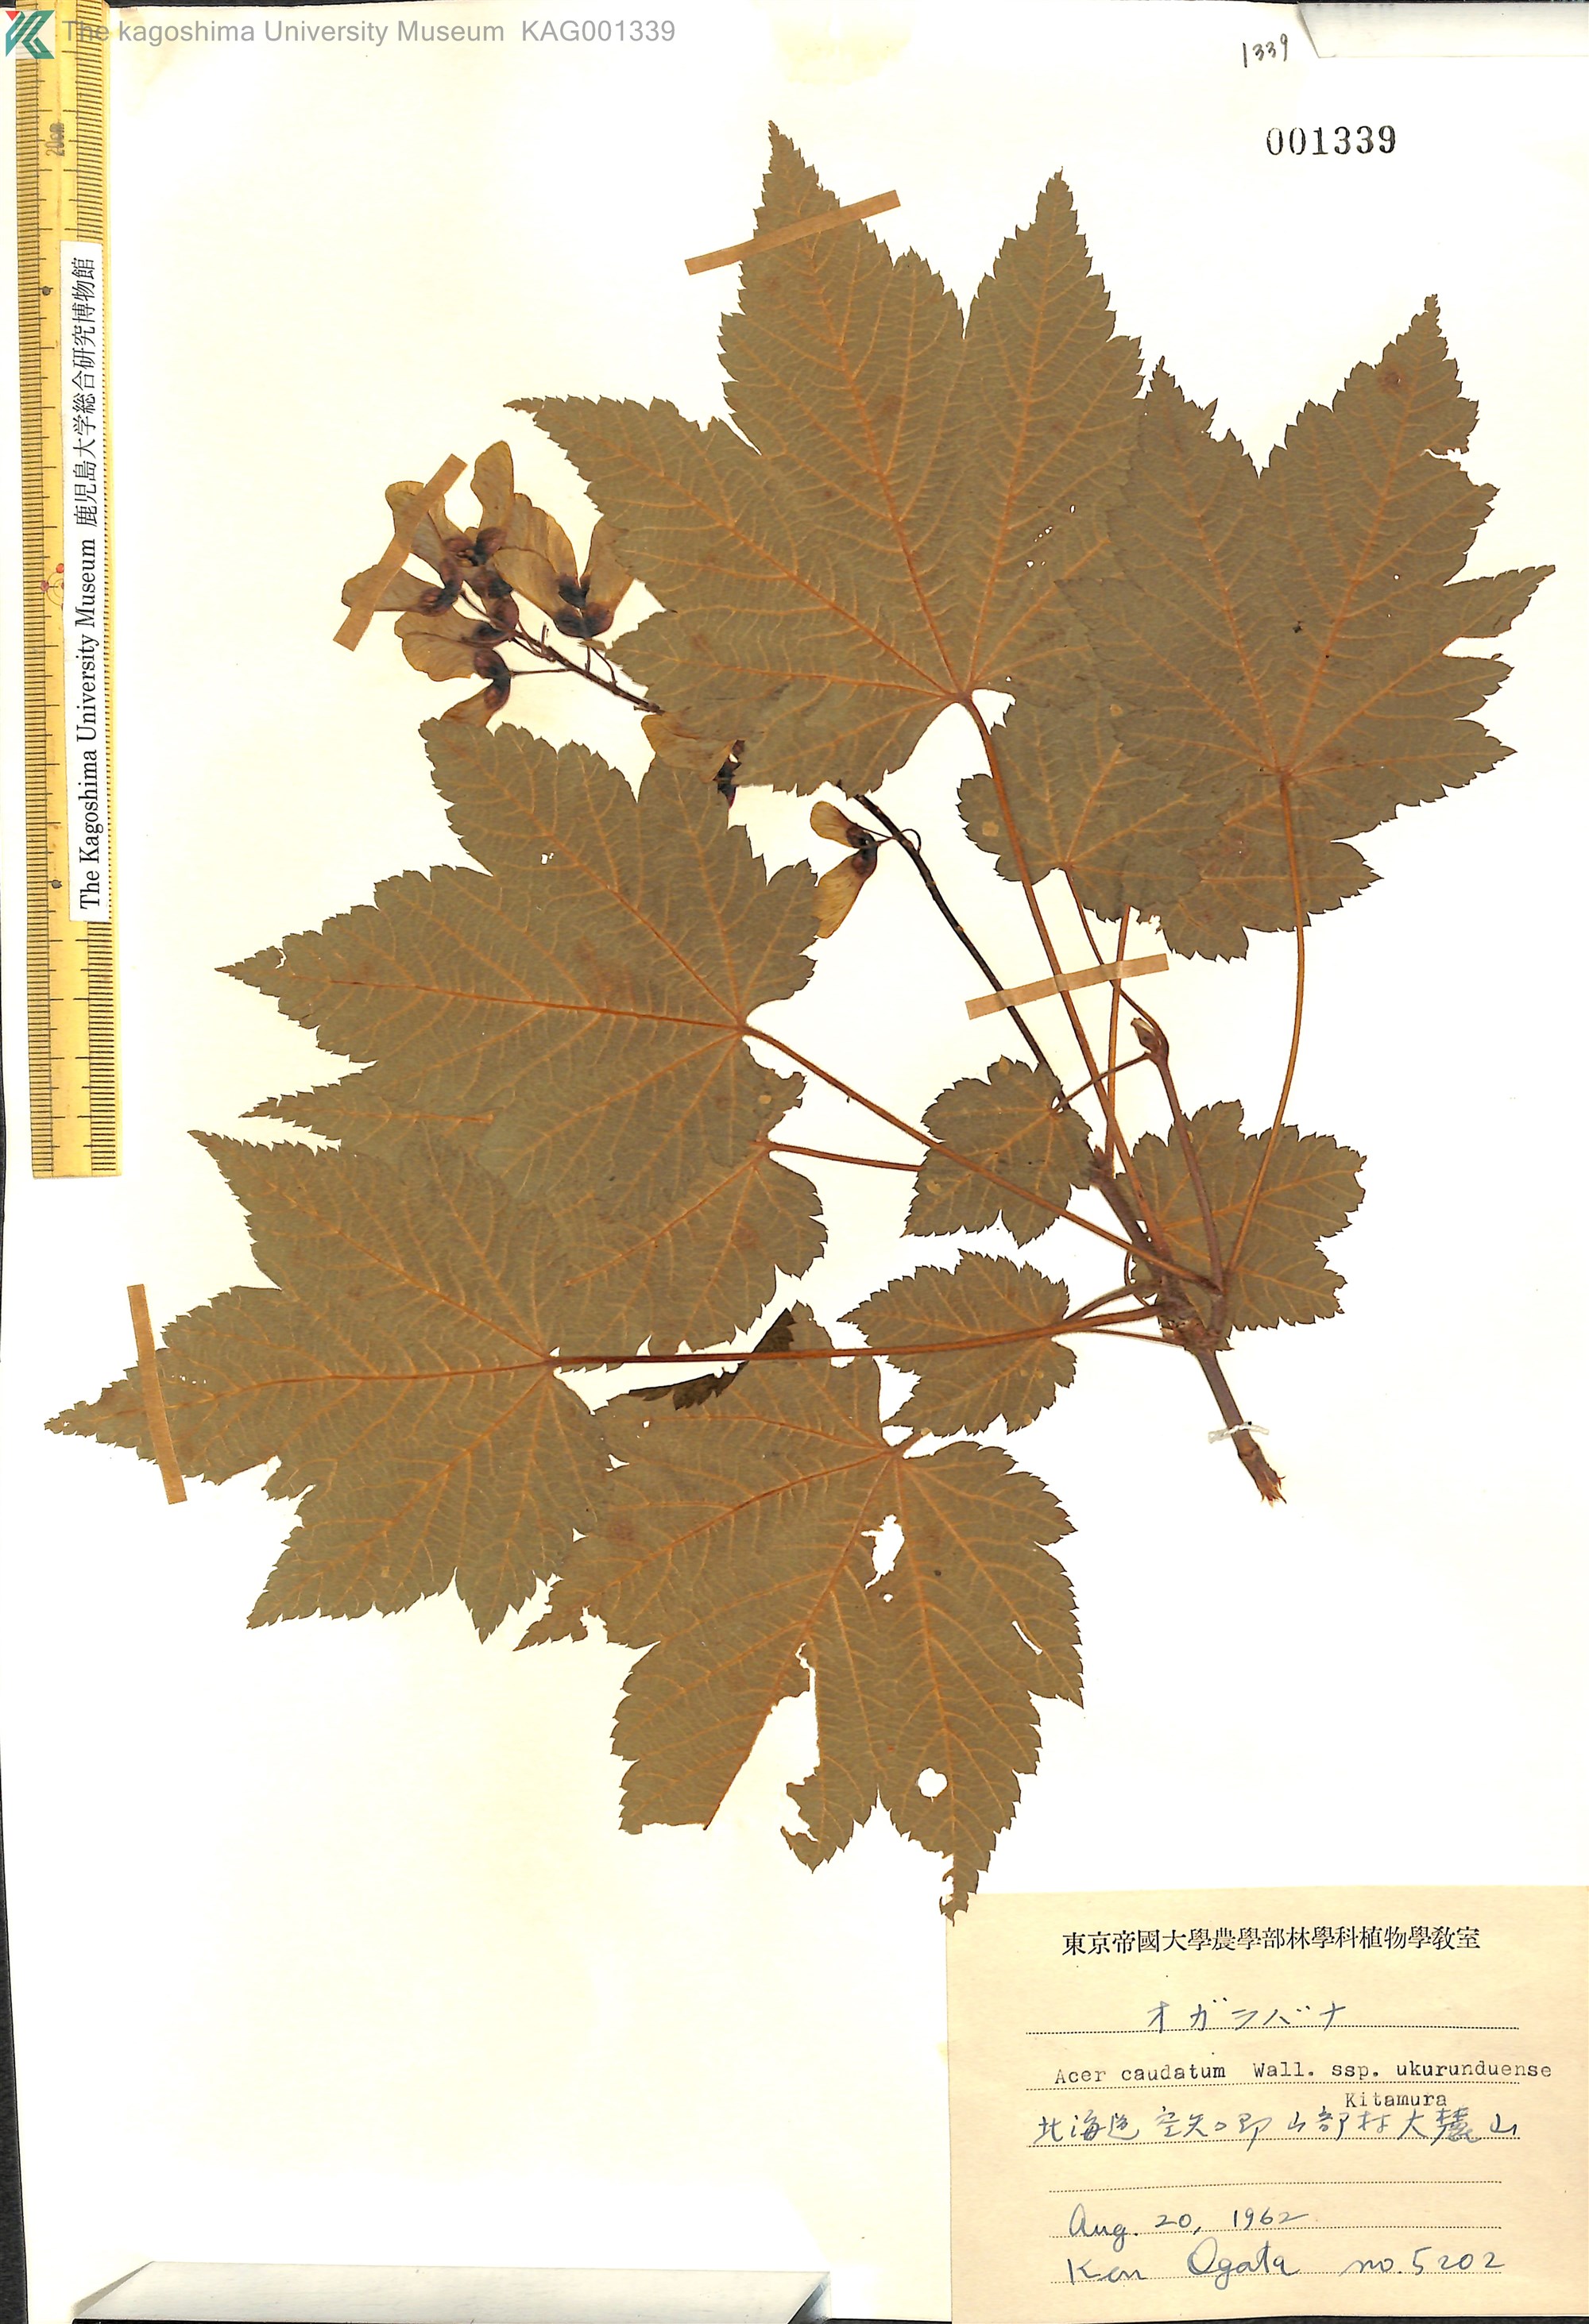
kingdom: Plantae
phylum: Tracheophyta
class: Magnoliopsida
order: Sapindales
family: Sapindaceae
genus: Acer
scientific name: Acer ukurunduense
